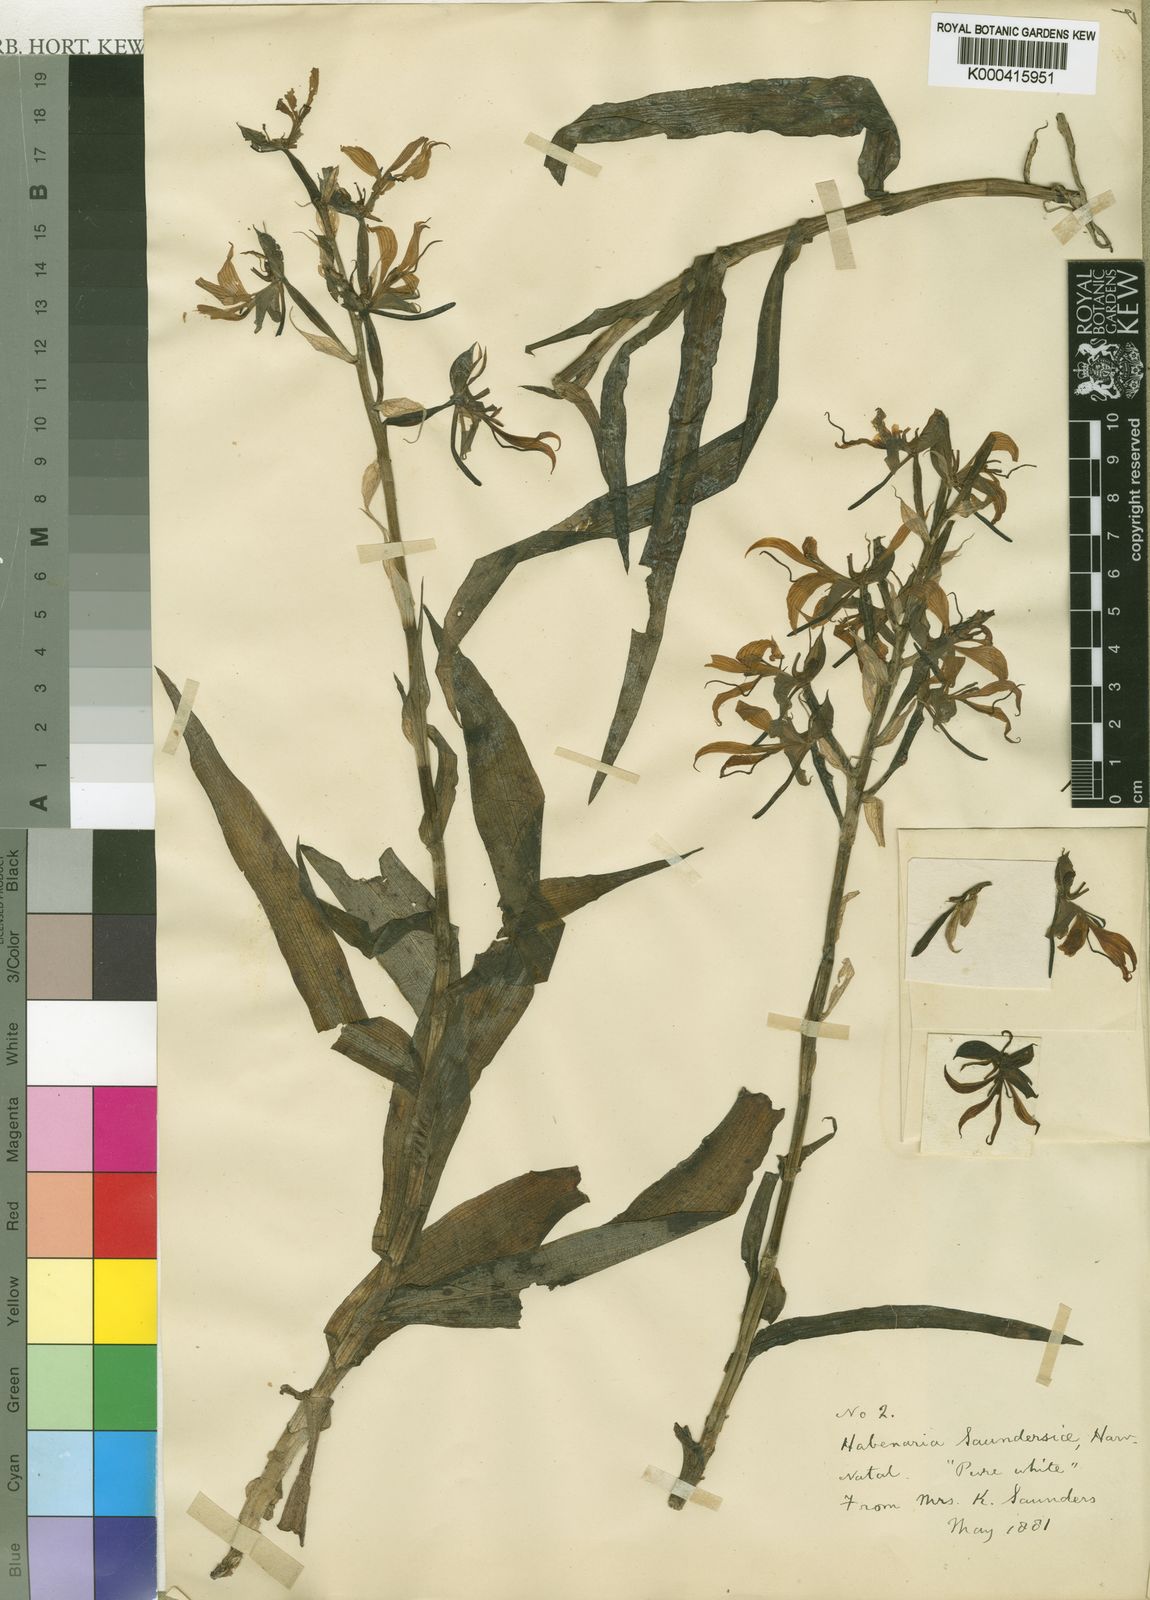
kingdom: Plantae
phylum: Tracheophyta
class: Liliopsida
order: Asparagales
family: Orchidaceae
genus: Bonatea
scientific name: Bonatea cassidea
